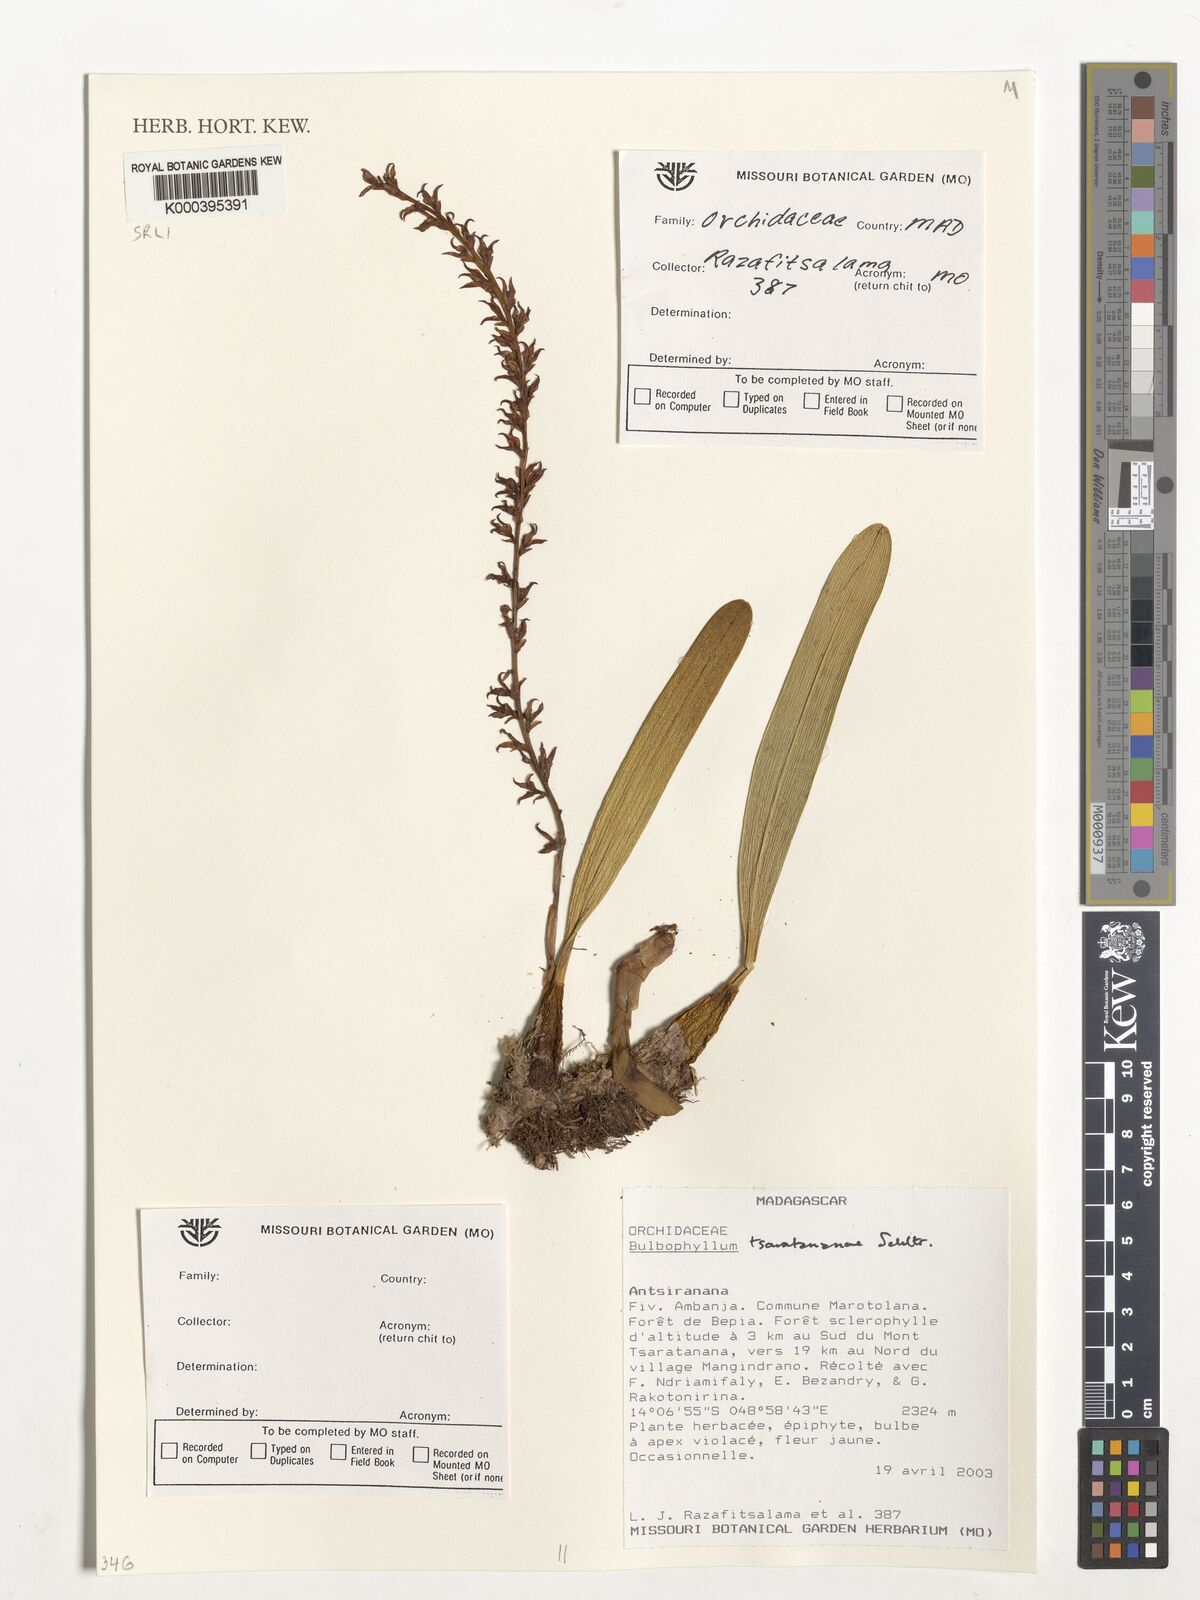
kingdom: Plantae
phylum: Tracheophyta
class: Liliopsida
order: Asparagales
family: Orchidaceae
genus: Bulbophyllum
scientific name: Bulbophyllum
